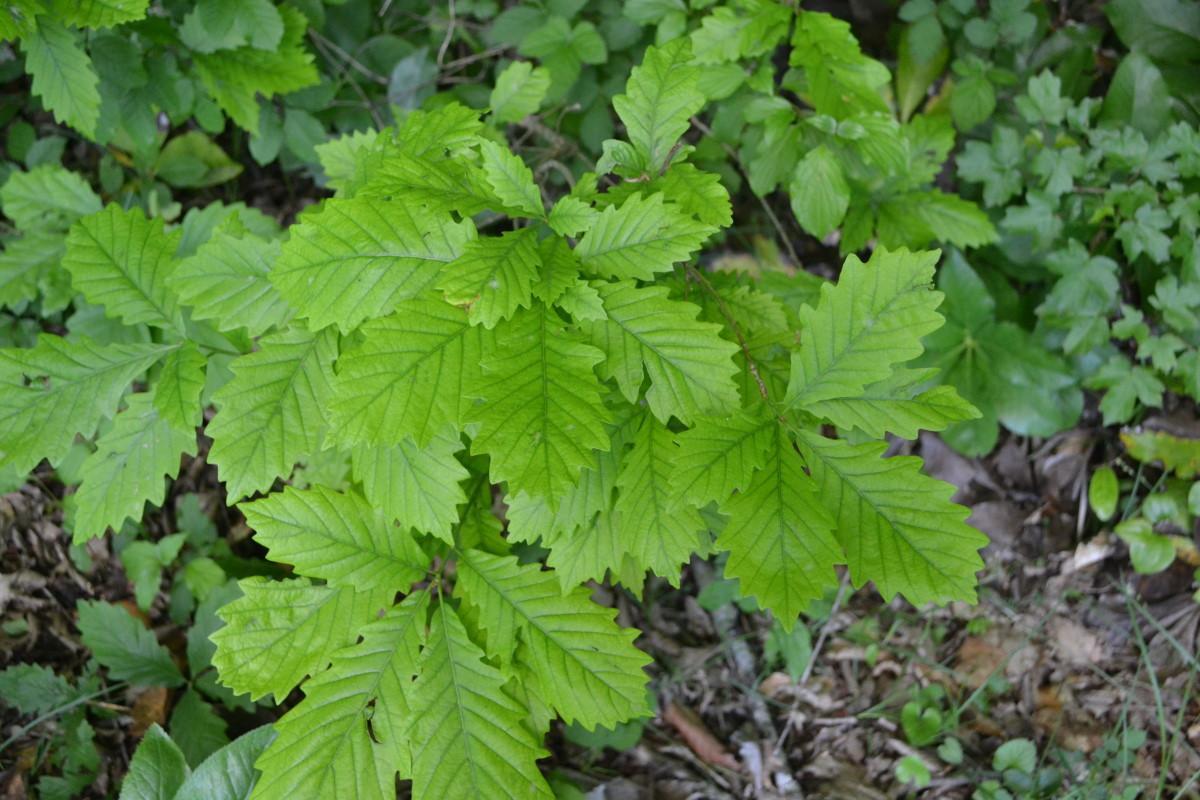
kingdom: Plantae
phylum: Tracheophyta
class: Magnoliopsida
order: Fagales
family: Fagaceae
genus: Quercus
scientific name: Quercus
